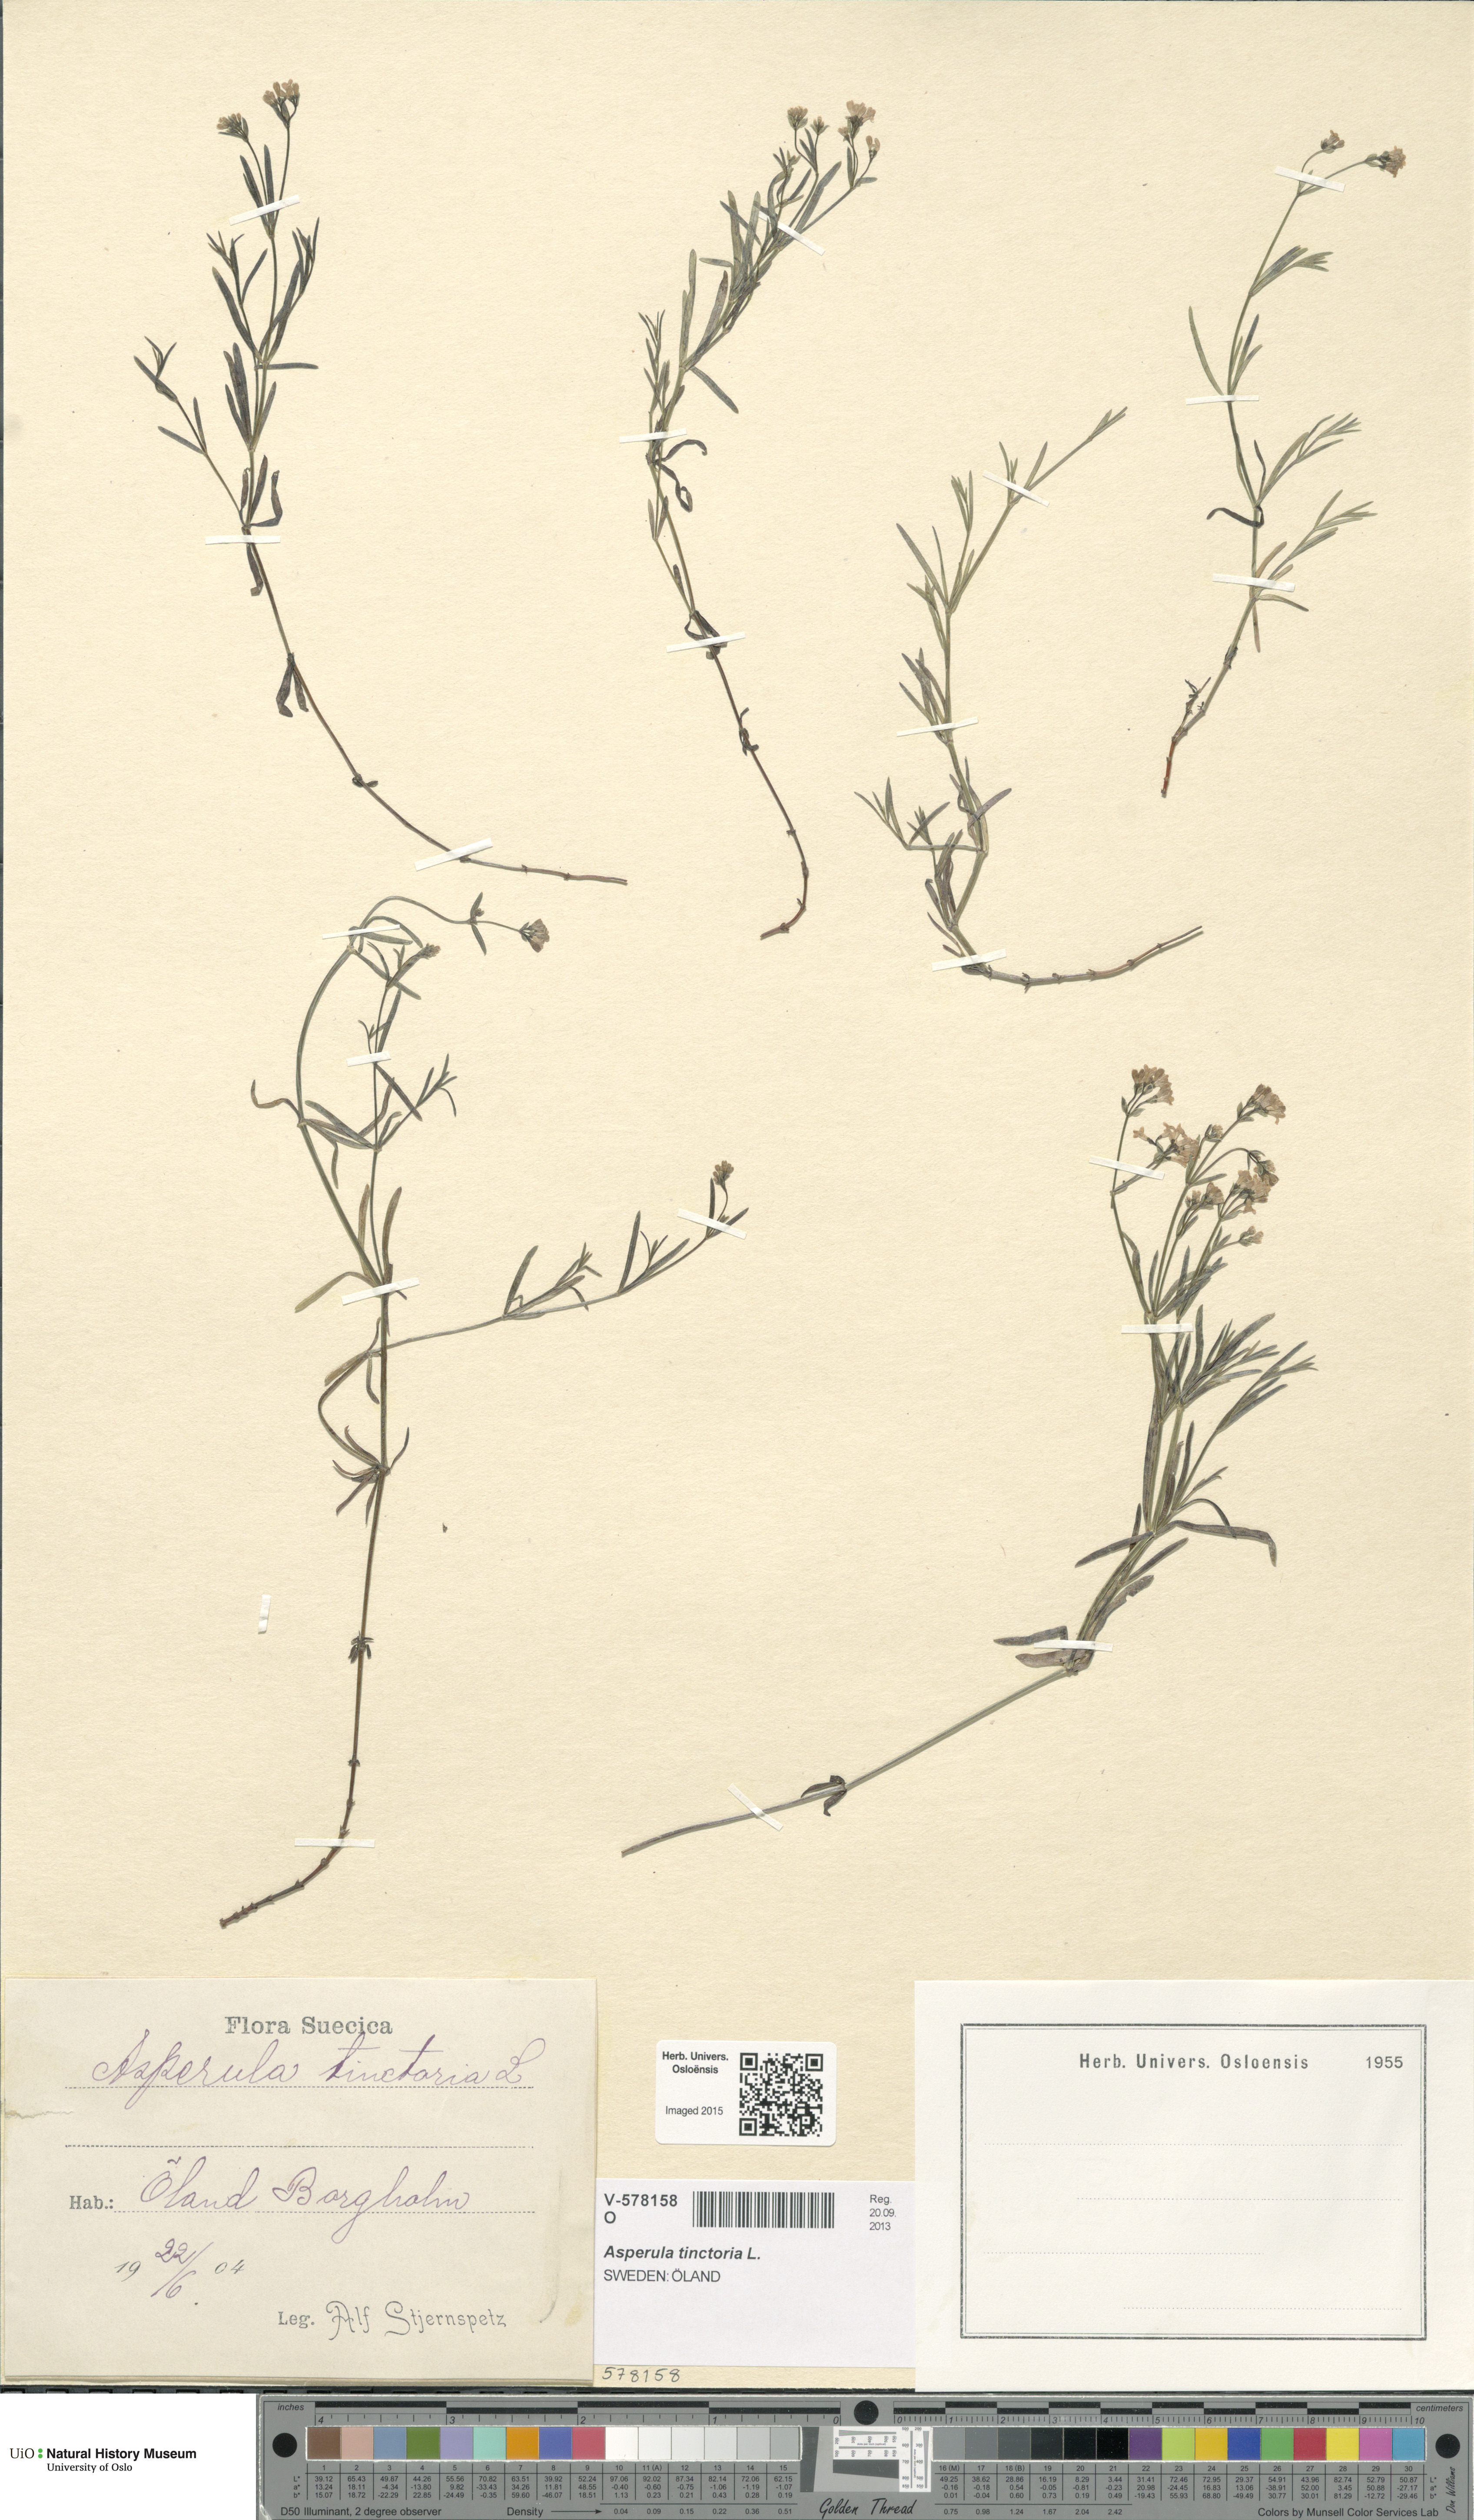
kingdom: Plantae
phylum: Tracheophyta
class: Magnoliopsida
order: Gentianales
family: Rubiaceae
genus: Asperula
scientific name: Asperula tinctoria
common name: Dyer's woodruff
